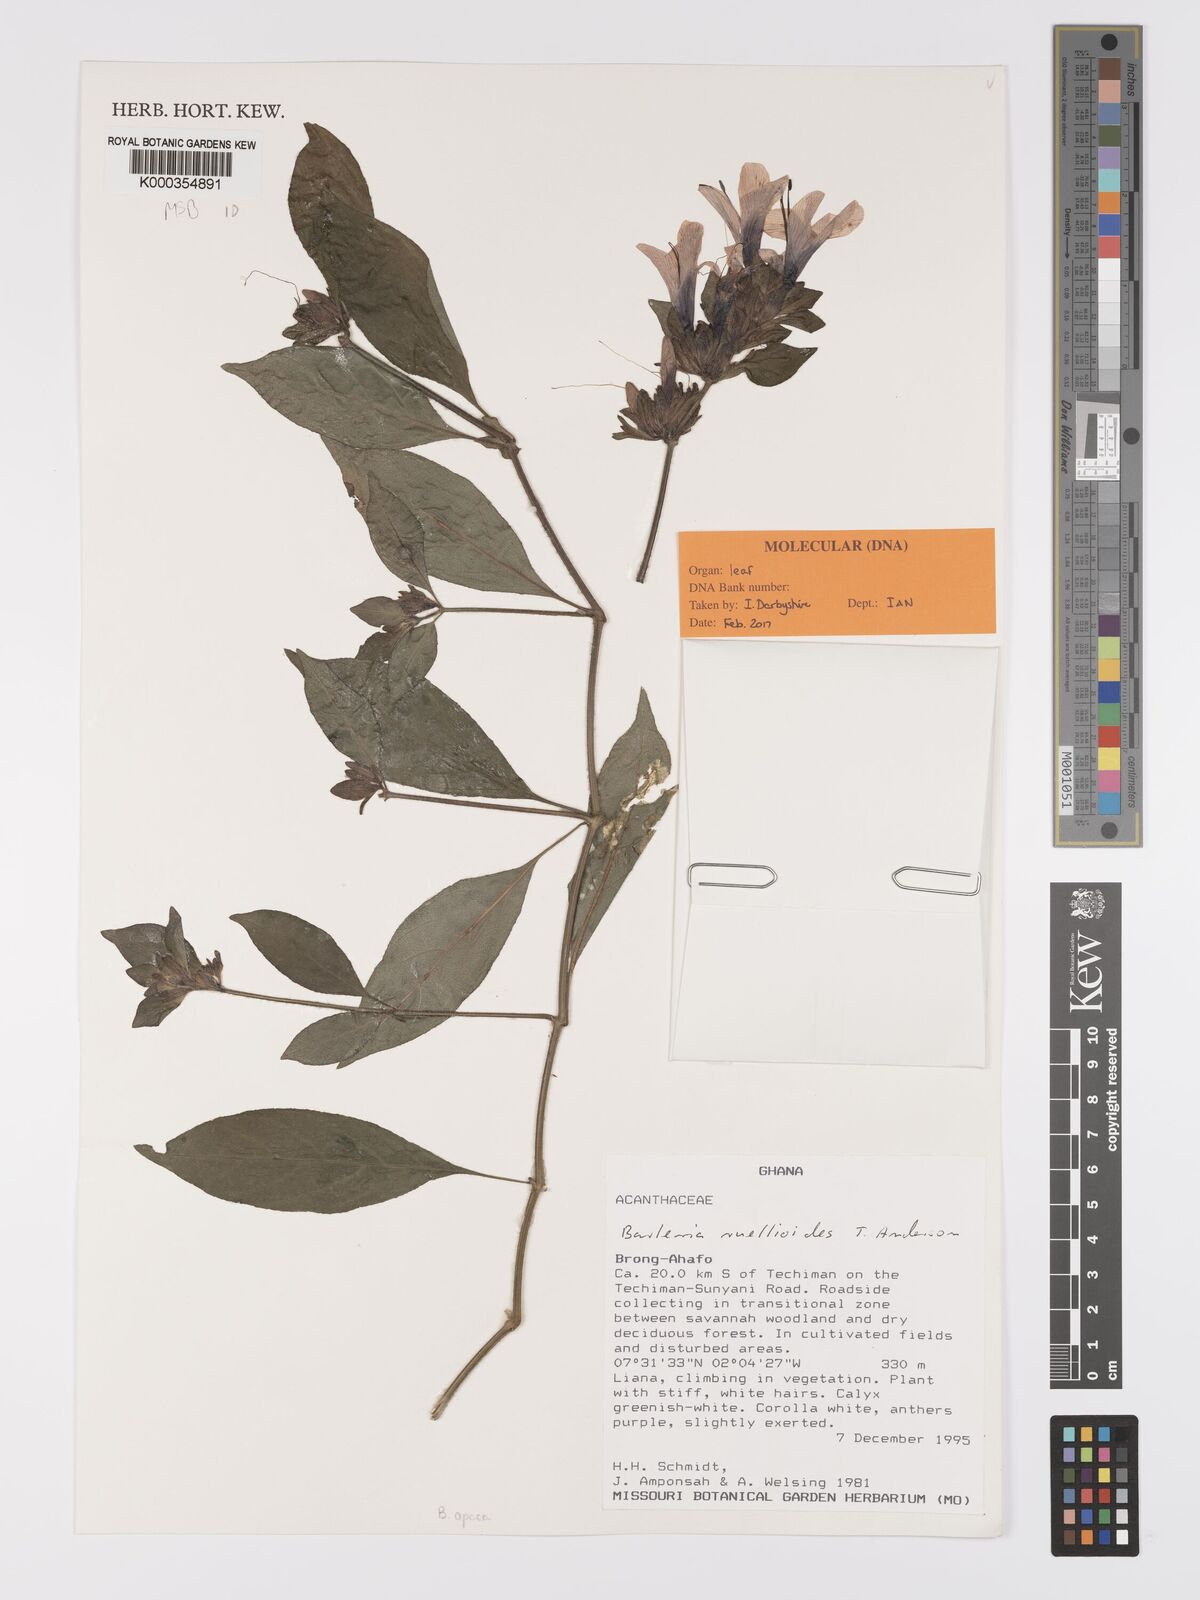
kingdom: Plantae
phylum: Tracheophyta
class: Magnoliopsida
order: Lamiales
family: Acanthaceae
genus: Barleria
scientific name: Barleria ruellioides
